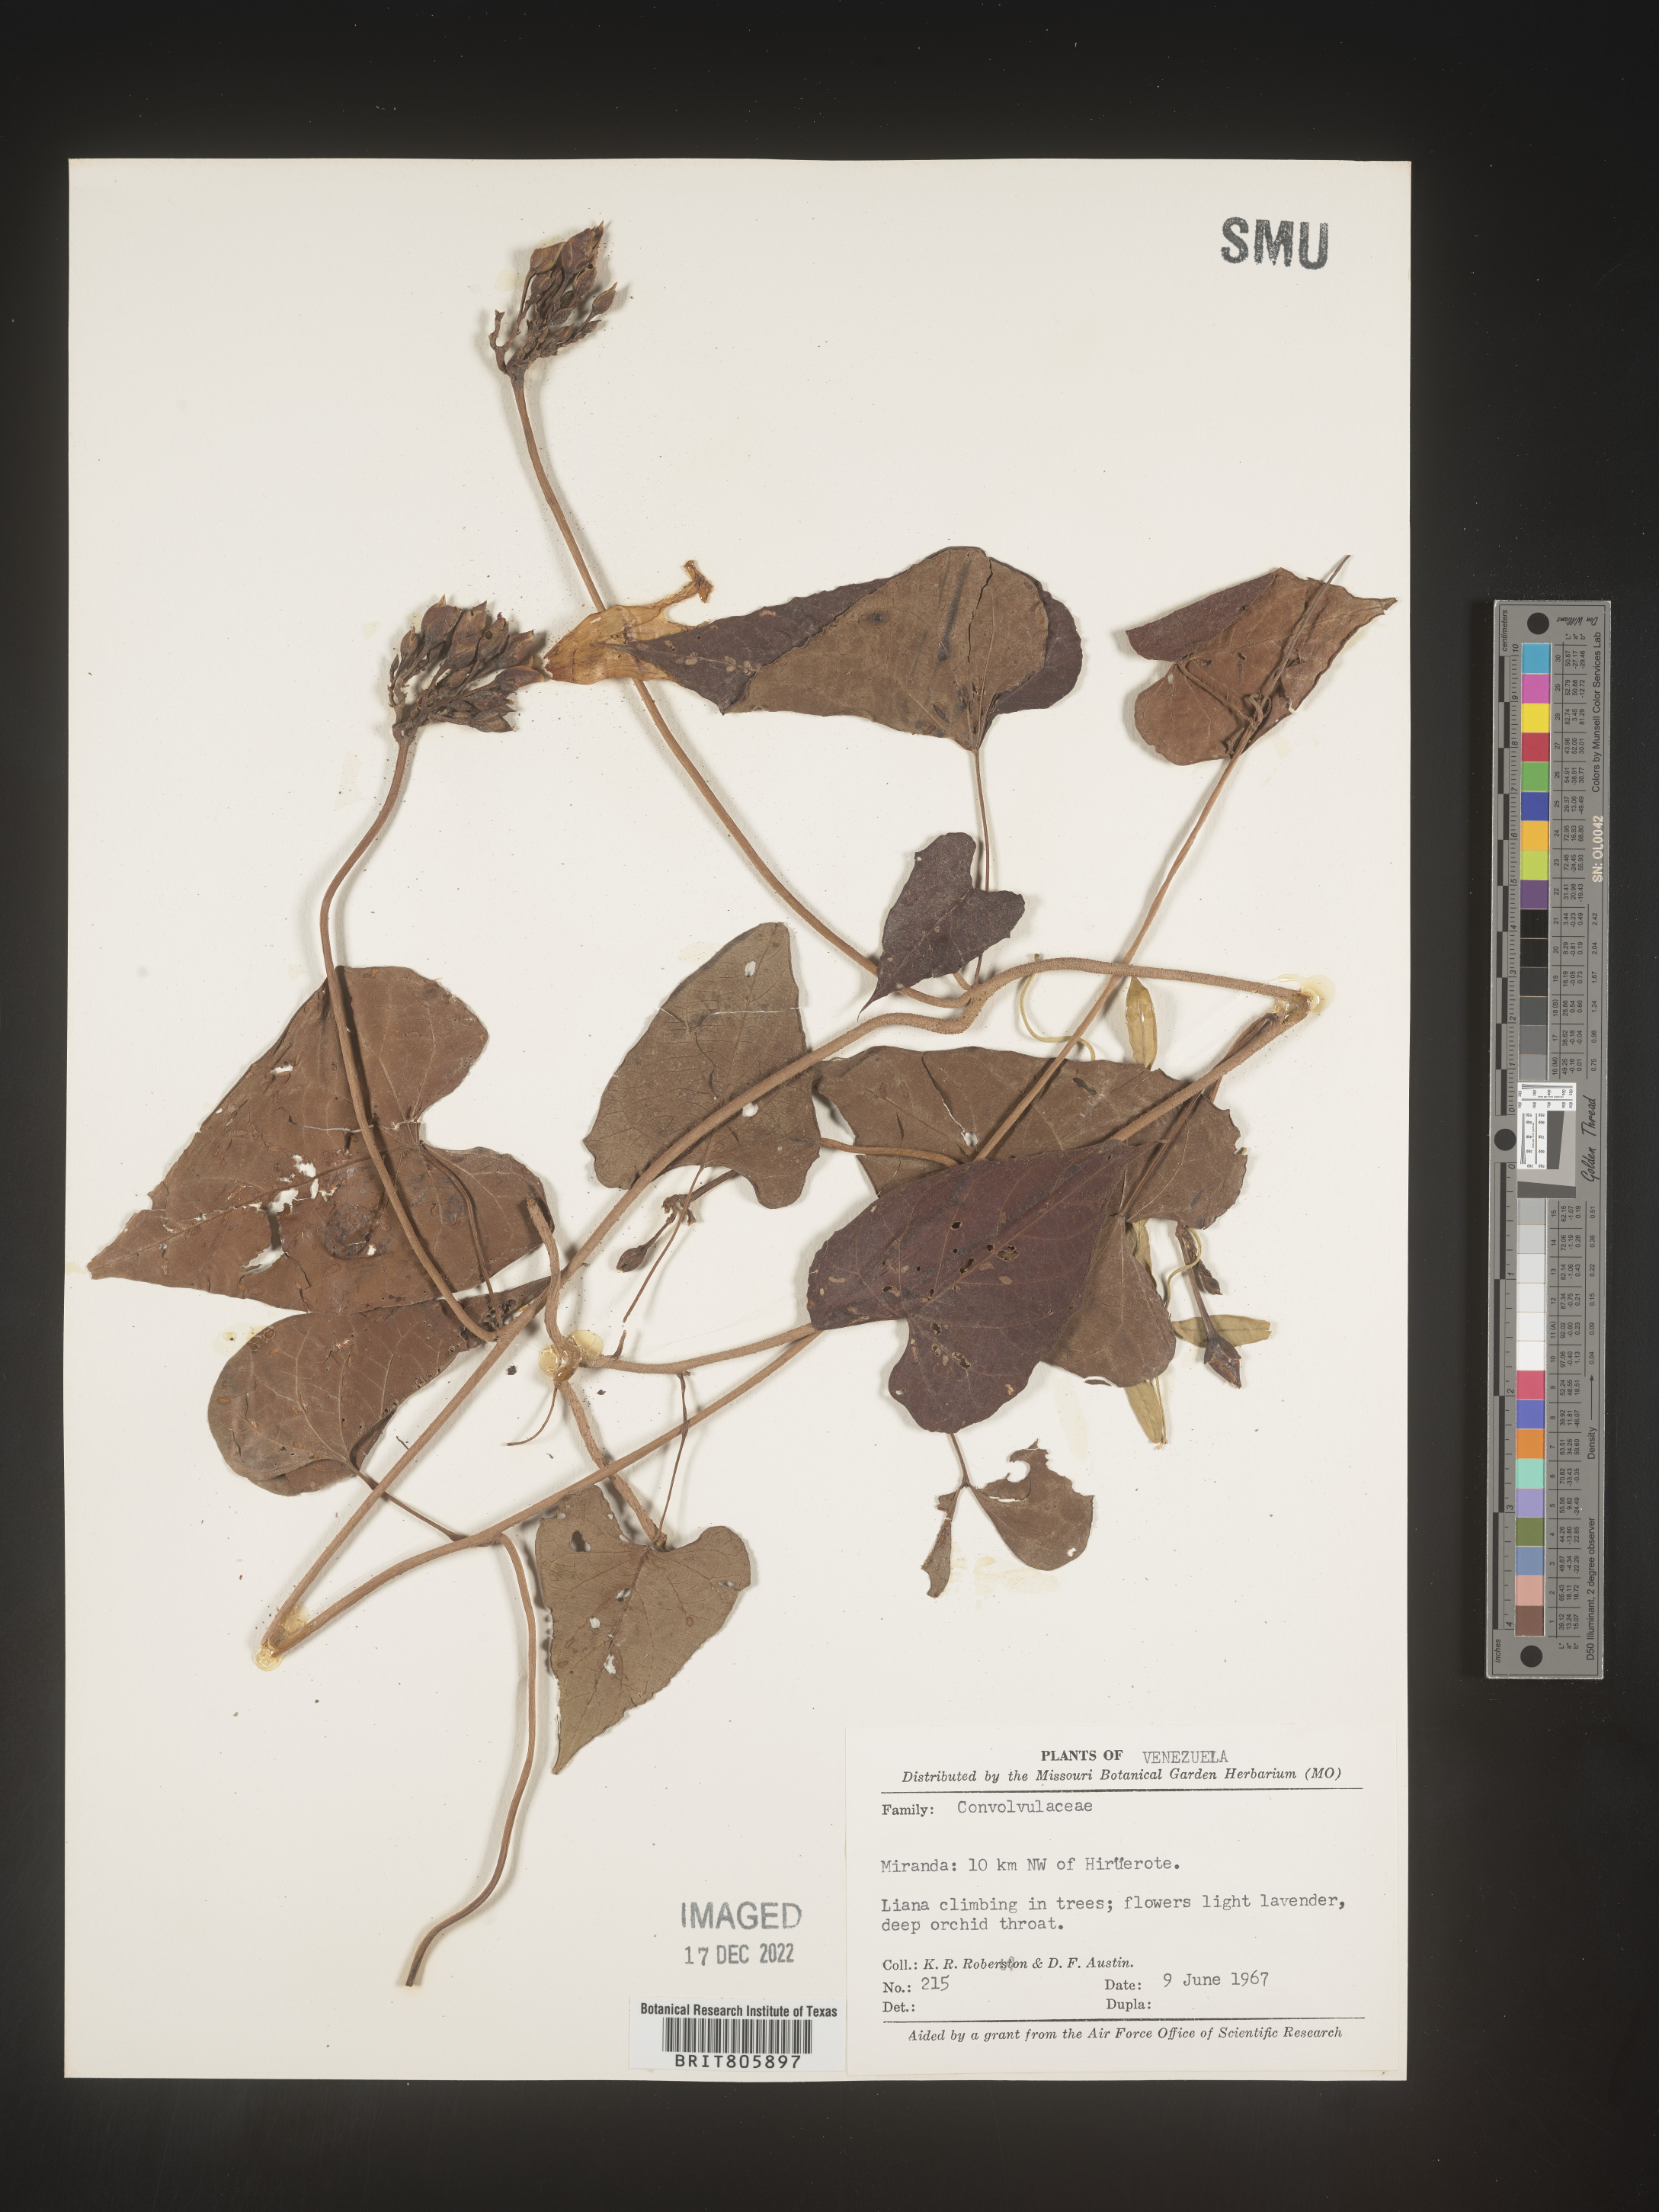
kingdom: Animalia
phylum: Mollusca
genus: Turbina
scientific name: Turbina
